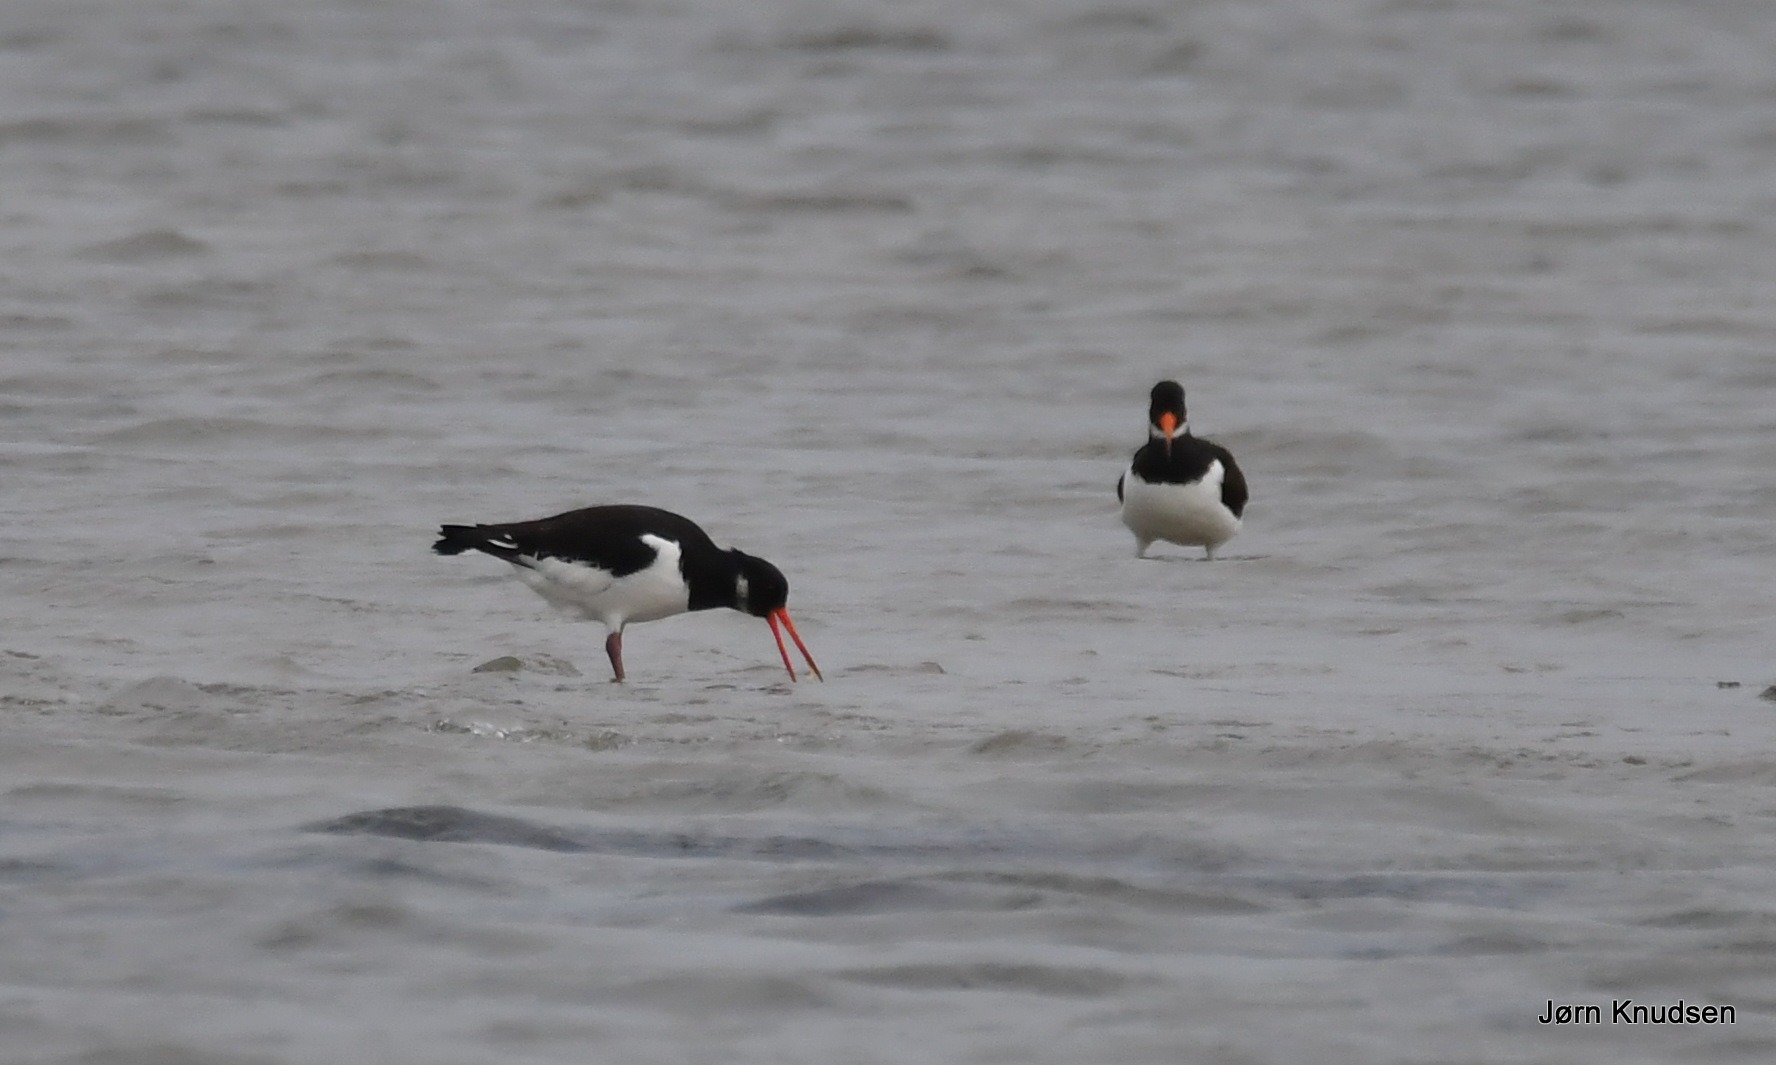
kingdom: Animalia
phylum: Chordata
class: Aves
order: Charadriiformes
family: Haematopodidae
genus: Haematopus
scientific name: Haematopus ostralegus
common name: Strandskade
